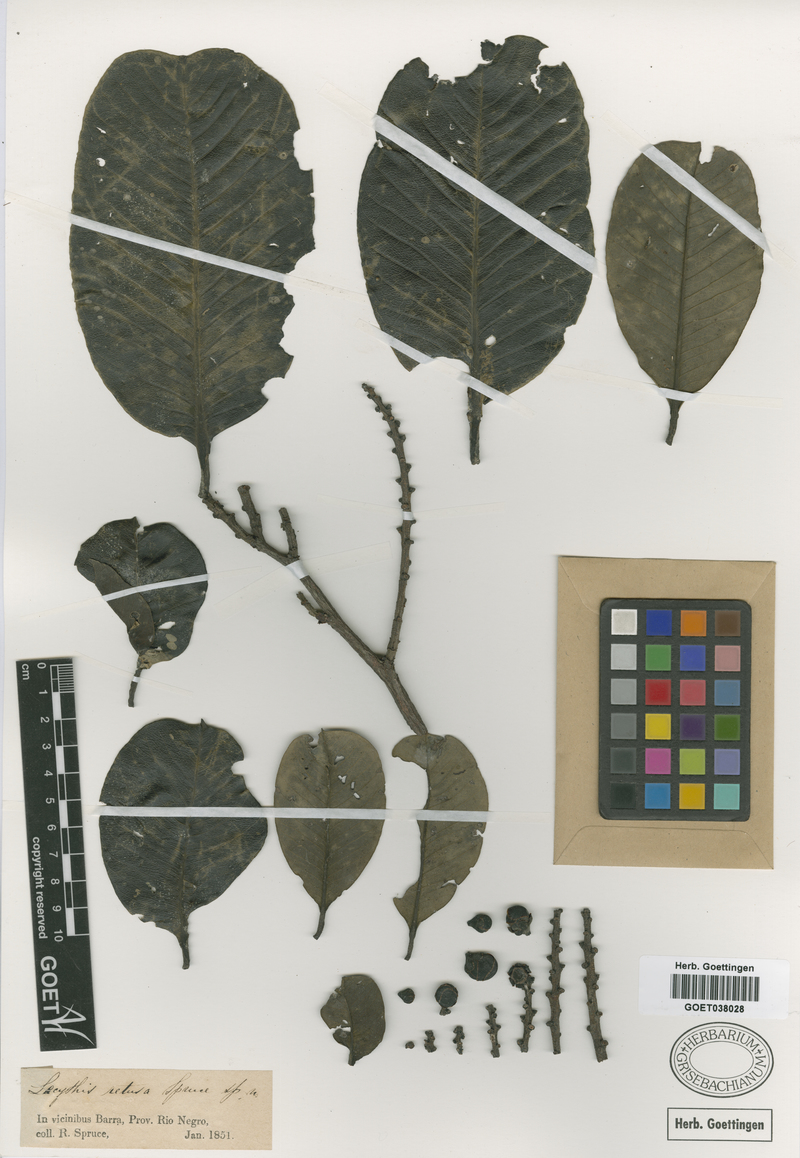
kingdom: Plantae
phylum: Tracheophyta
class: Magnoliopsida
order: Ericales
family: Lecythidaceae
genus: Lecythis
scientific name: Lecythis retusa
